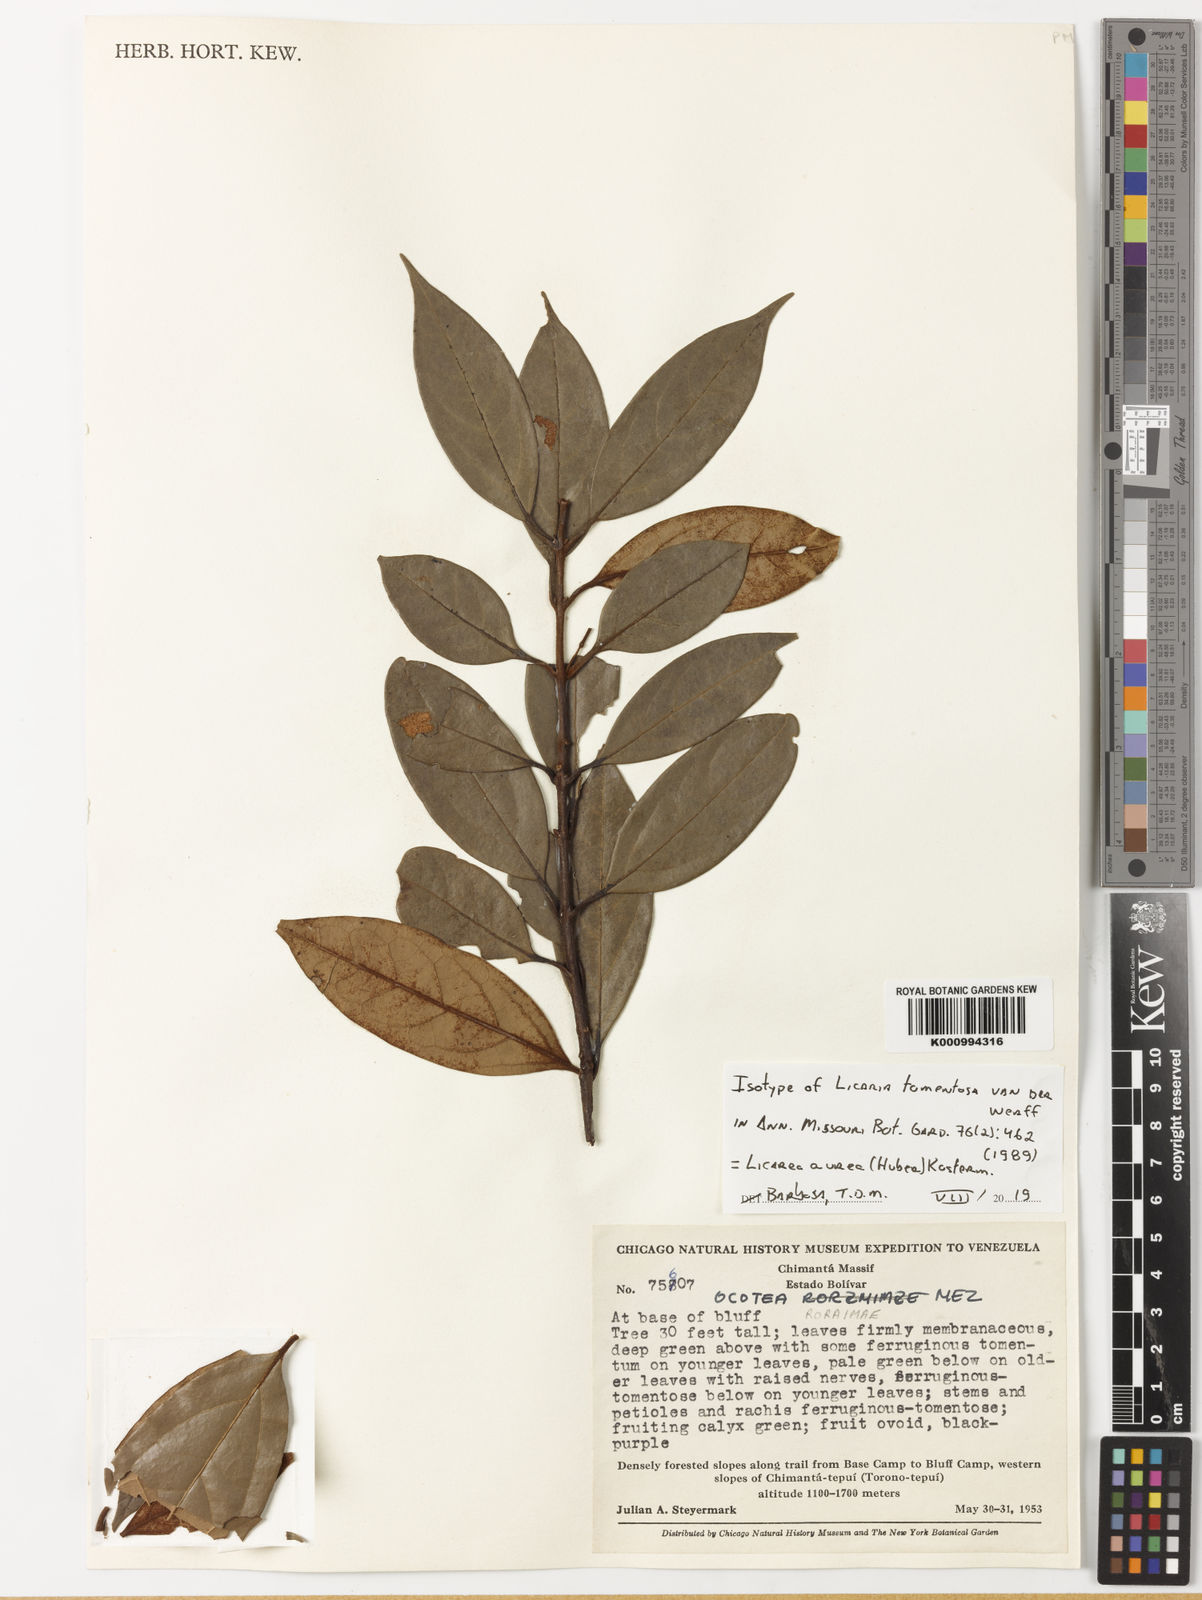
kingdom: Plantae
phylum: Tracheophyta
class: Magnoliopsida
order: Laurales
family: Lauraceae
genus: Ocotea
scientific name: Ocotea tomentosa
